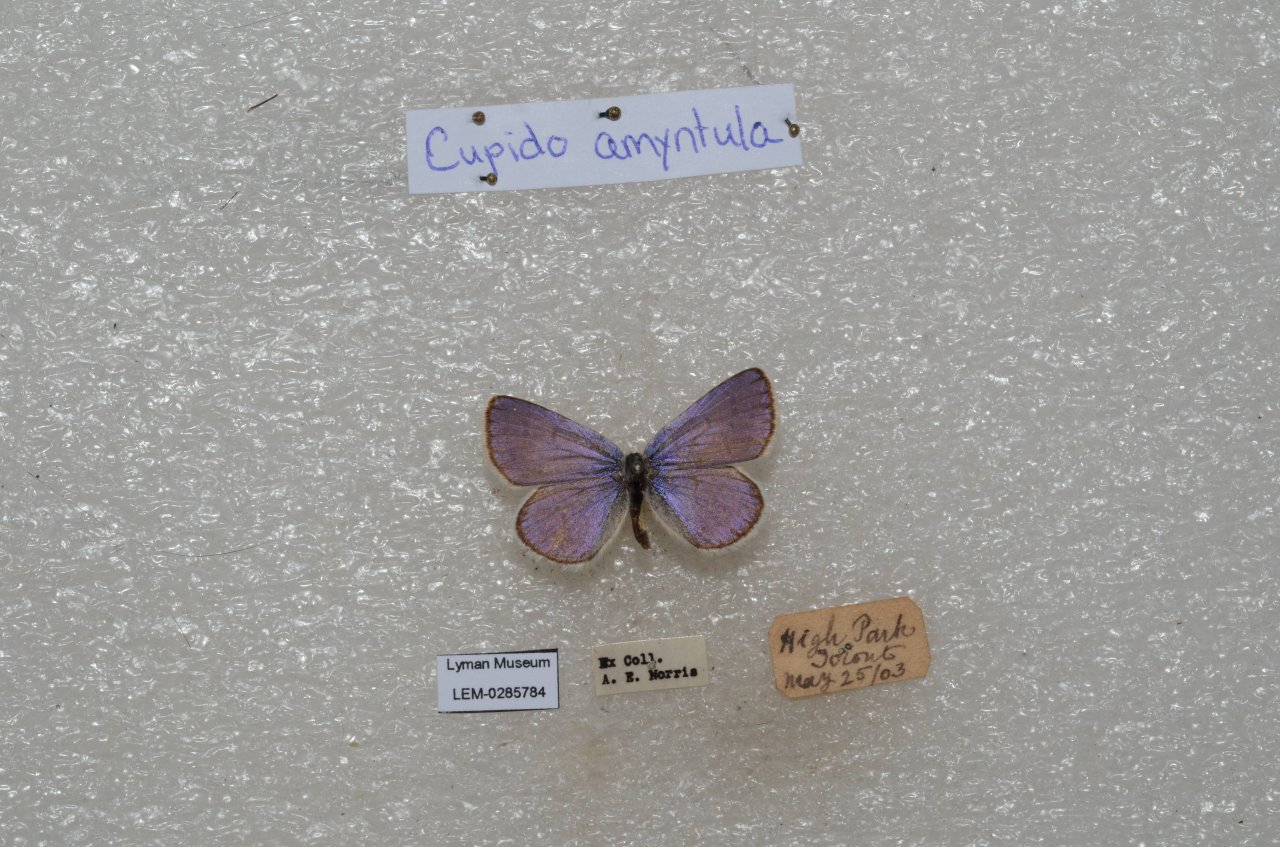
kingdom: Animalia
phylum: Arthropoda
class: Insecta
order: Lepidoptera
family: Lycaenidae
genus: Plebejus
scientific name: Plebejus samuelis
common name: Karner Blue
